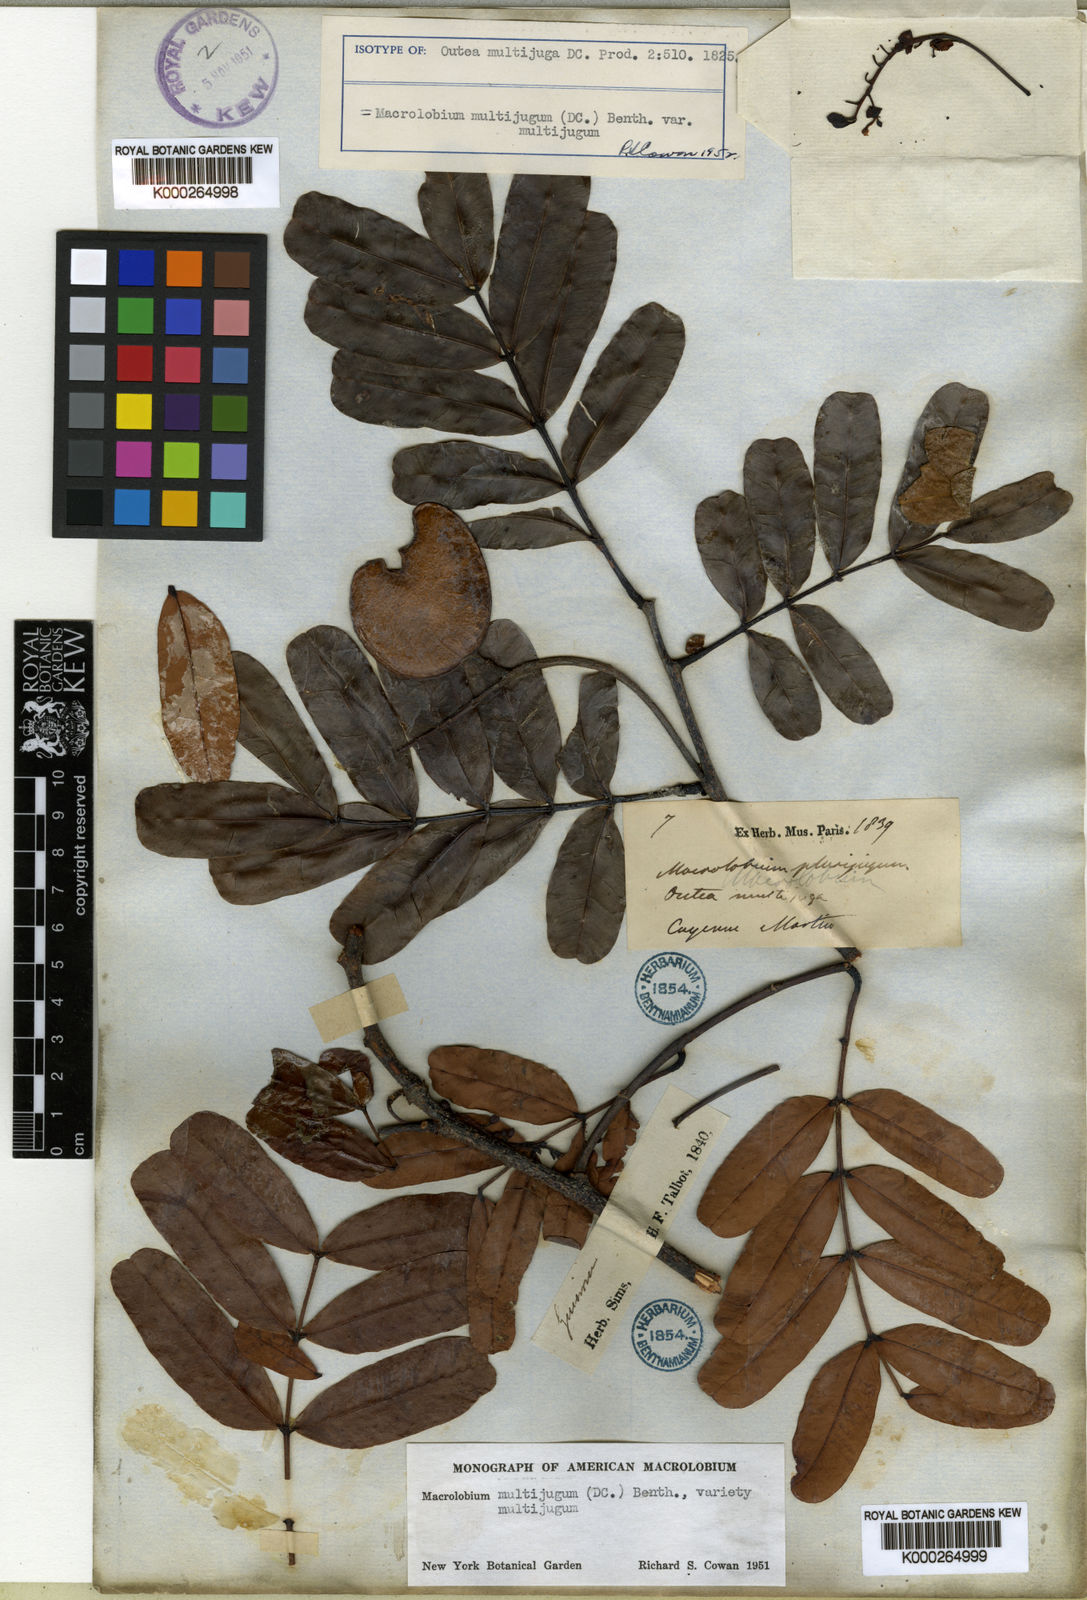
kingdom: Plantae
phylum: Tracheophyta
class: Magnoliopsida
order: Fabales
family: Fabaceae
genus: Macrolobium
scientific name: Macrolobium multijugum
